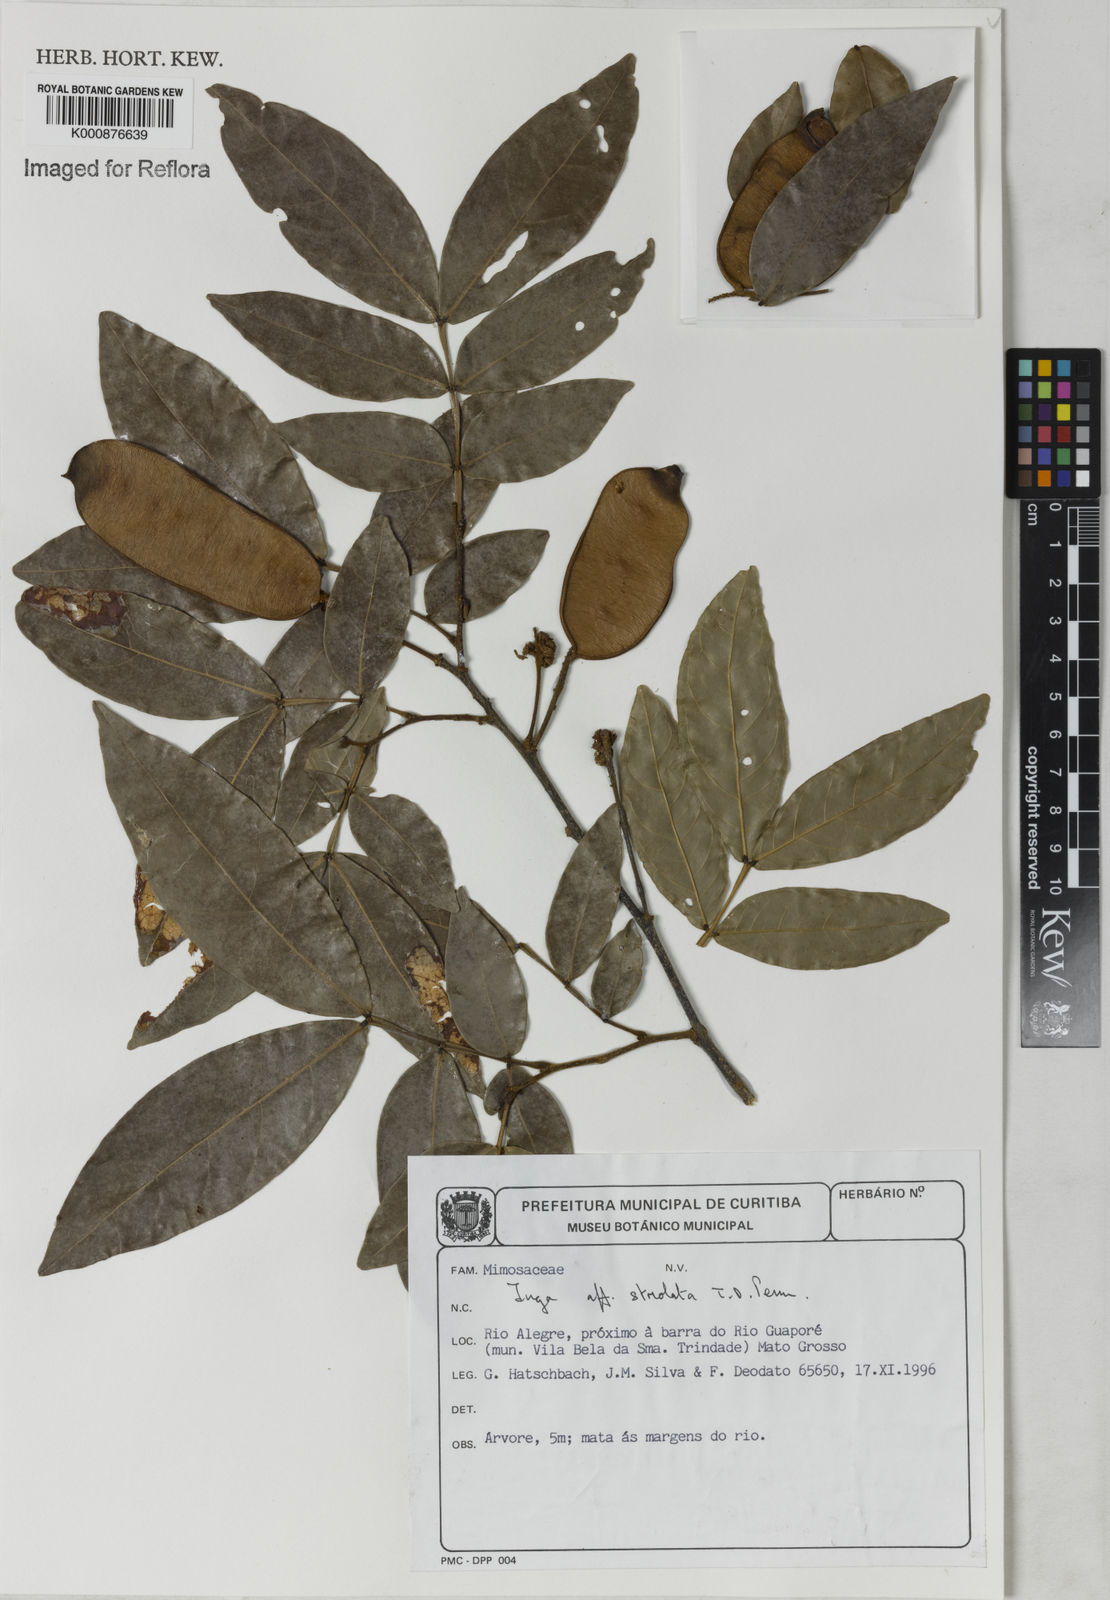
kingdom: Plantae
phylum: Tracheophyta
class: Magnoliopsida
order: Fabales
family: Fabaceae
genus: Inga
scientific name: Inga striolata
